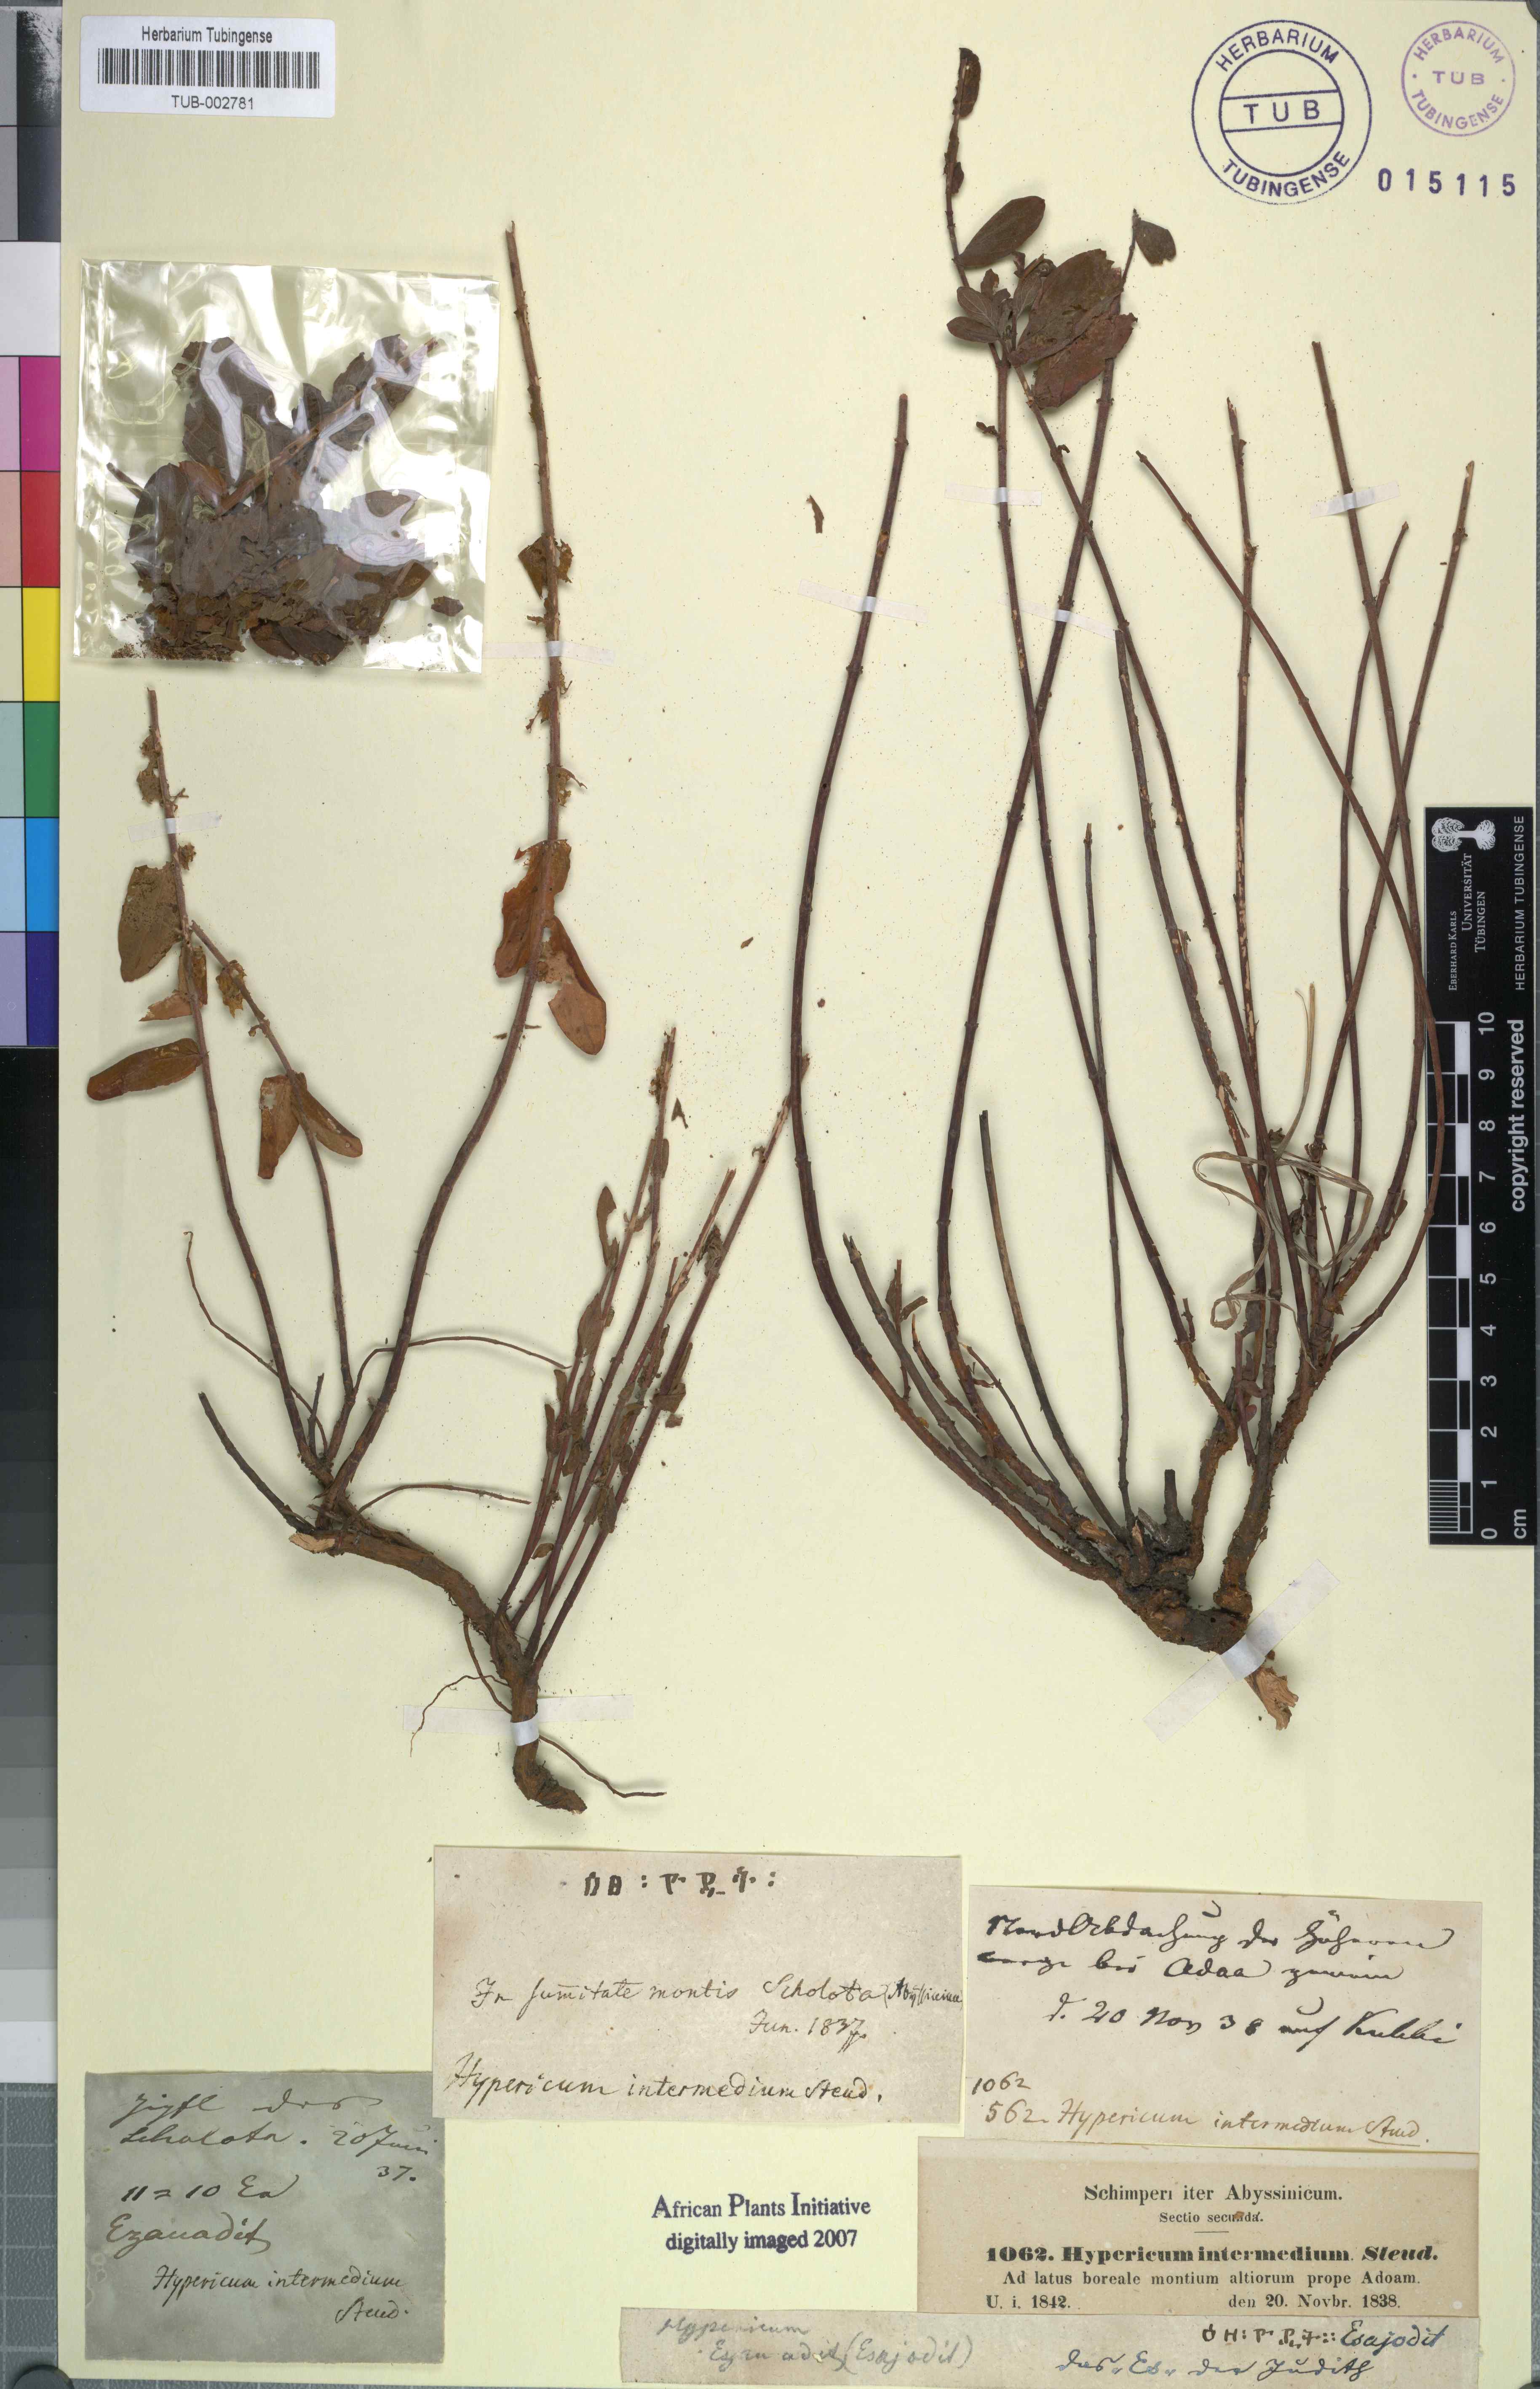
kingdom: Plantae
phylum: Tracheophyta
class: Magnoliopsida
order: Malpighiales
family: Hypericaceae
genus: Hypericum
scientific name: Hypericum annulatum
